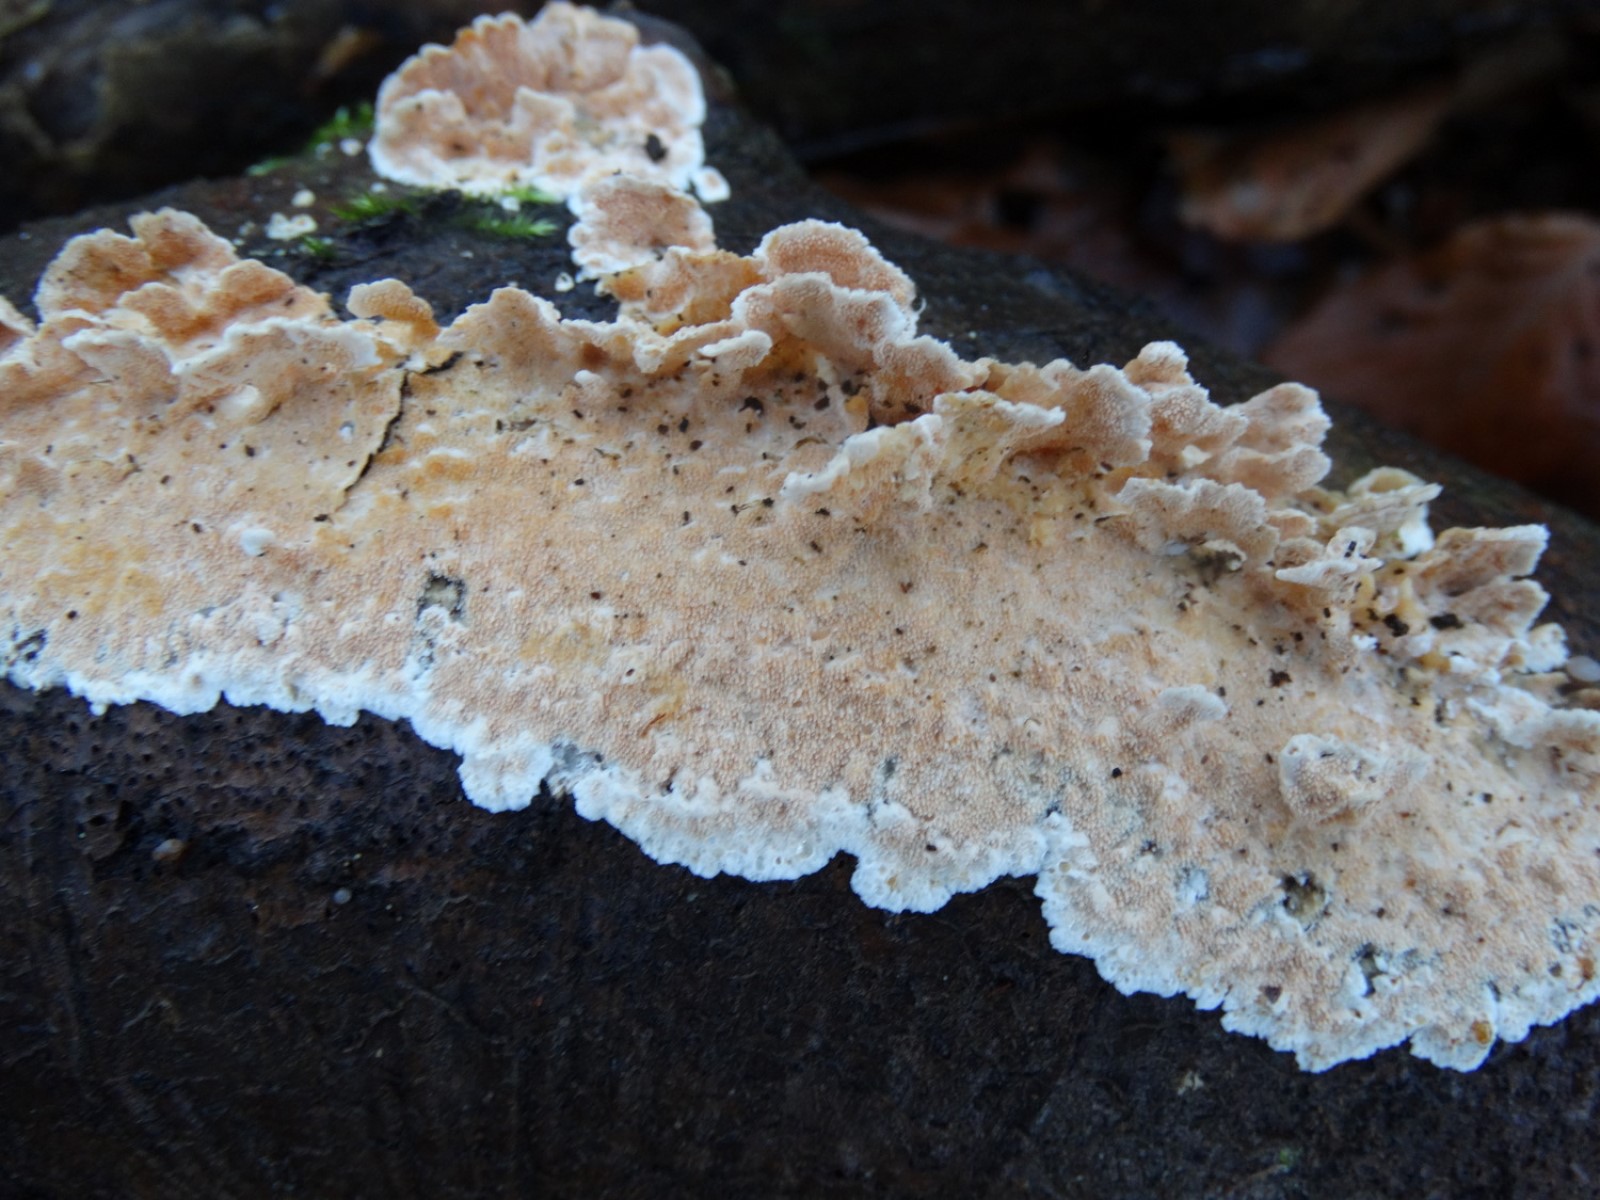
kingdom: Fungi
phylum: Basidiomycota
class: Agaricomycetes
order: Polyporales
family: Steccherinaceae
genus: Steccherinum
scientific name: Steccherinum ochraceum
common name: almindelig skønpig
